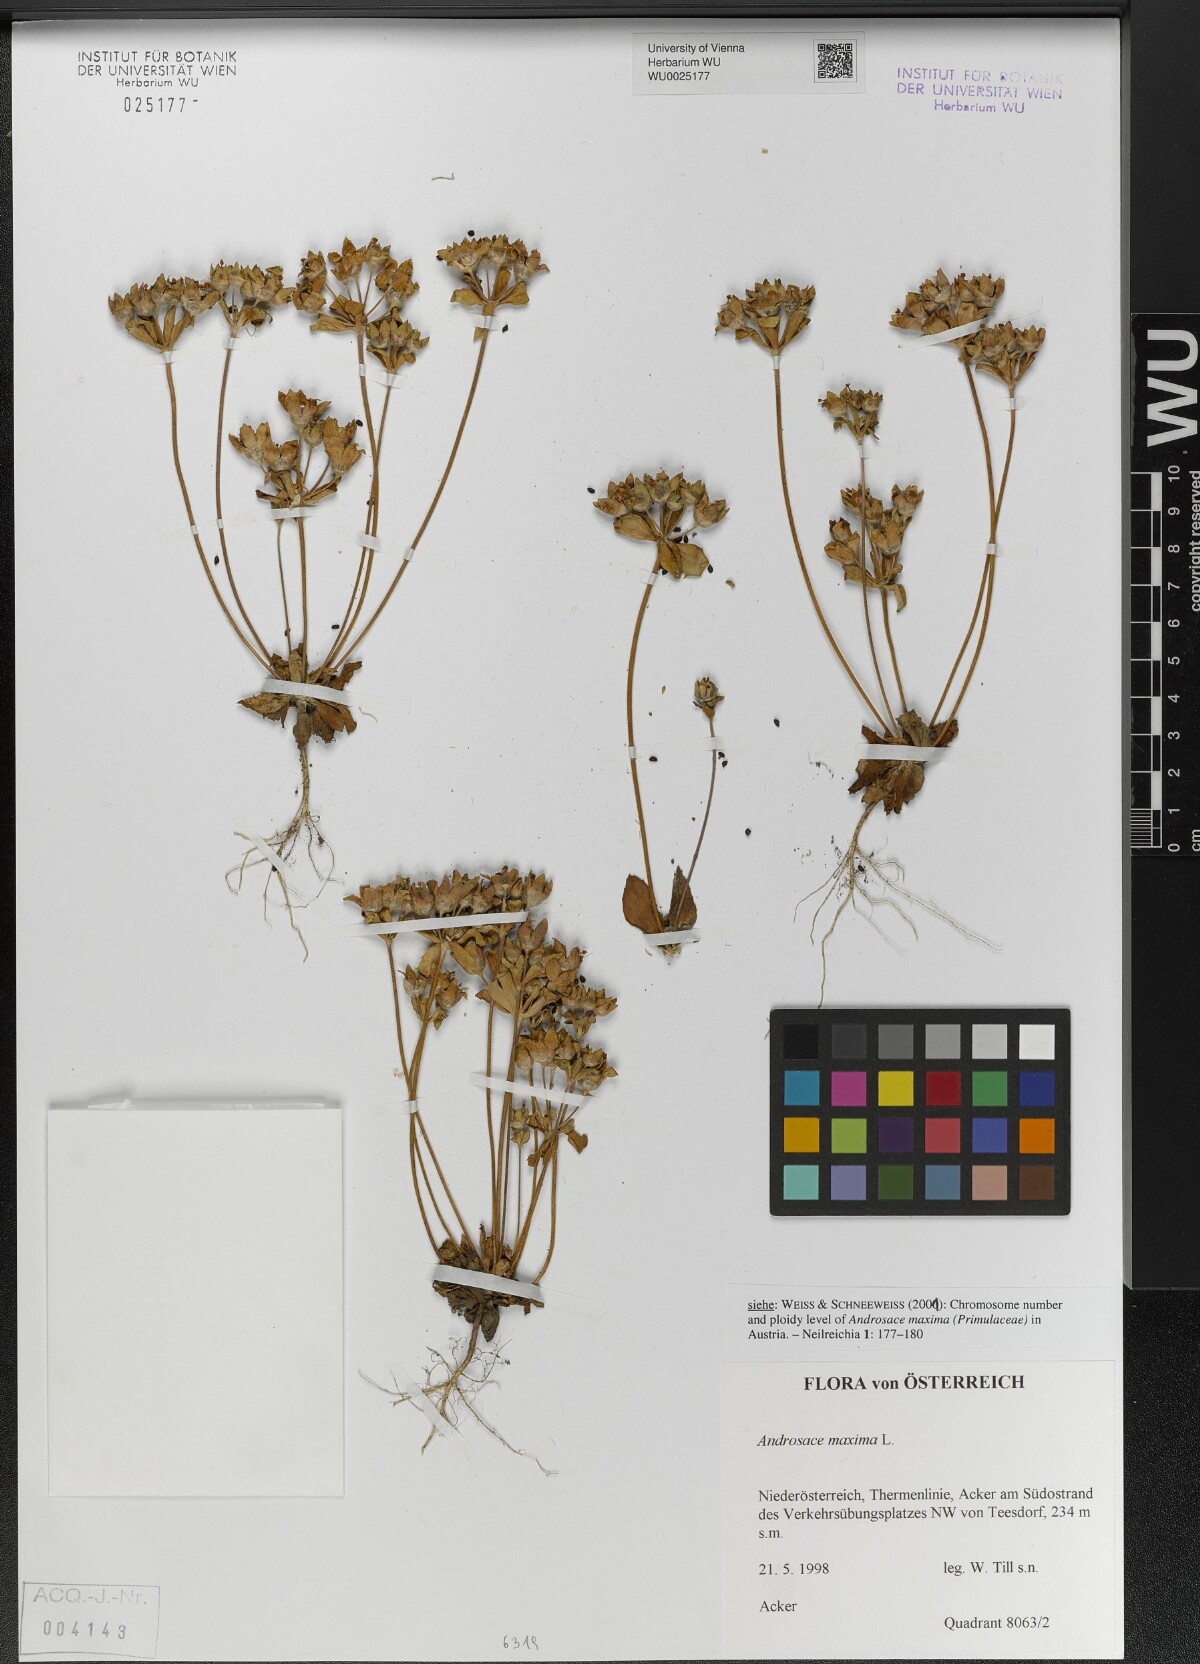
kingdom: Plantae
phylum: Tracheophyta
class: Magnoliopsida
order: Ericales
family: Primulaceae
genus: Androsace
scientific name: Androsace maxima
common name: Annual androsace
